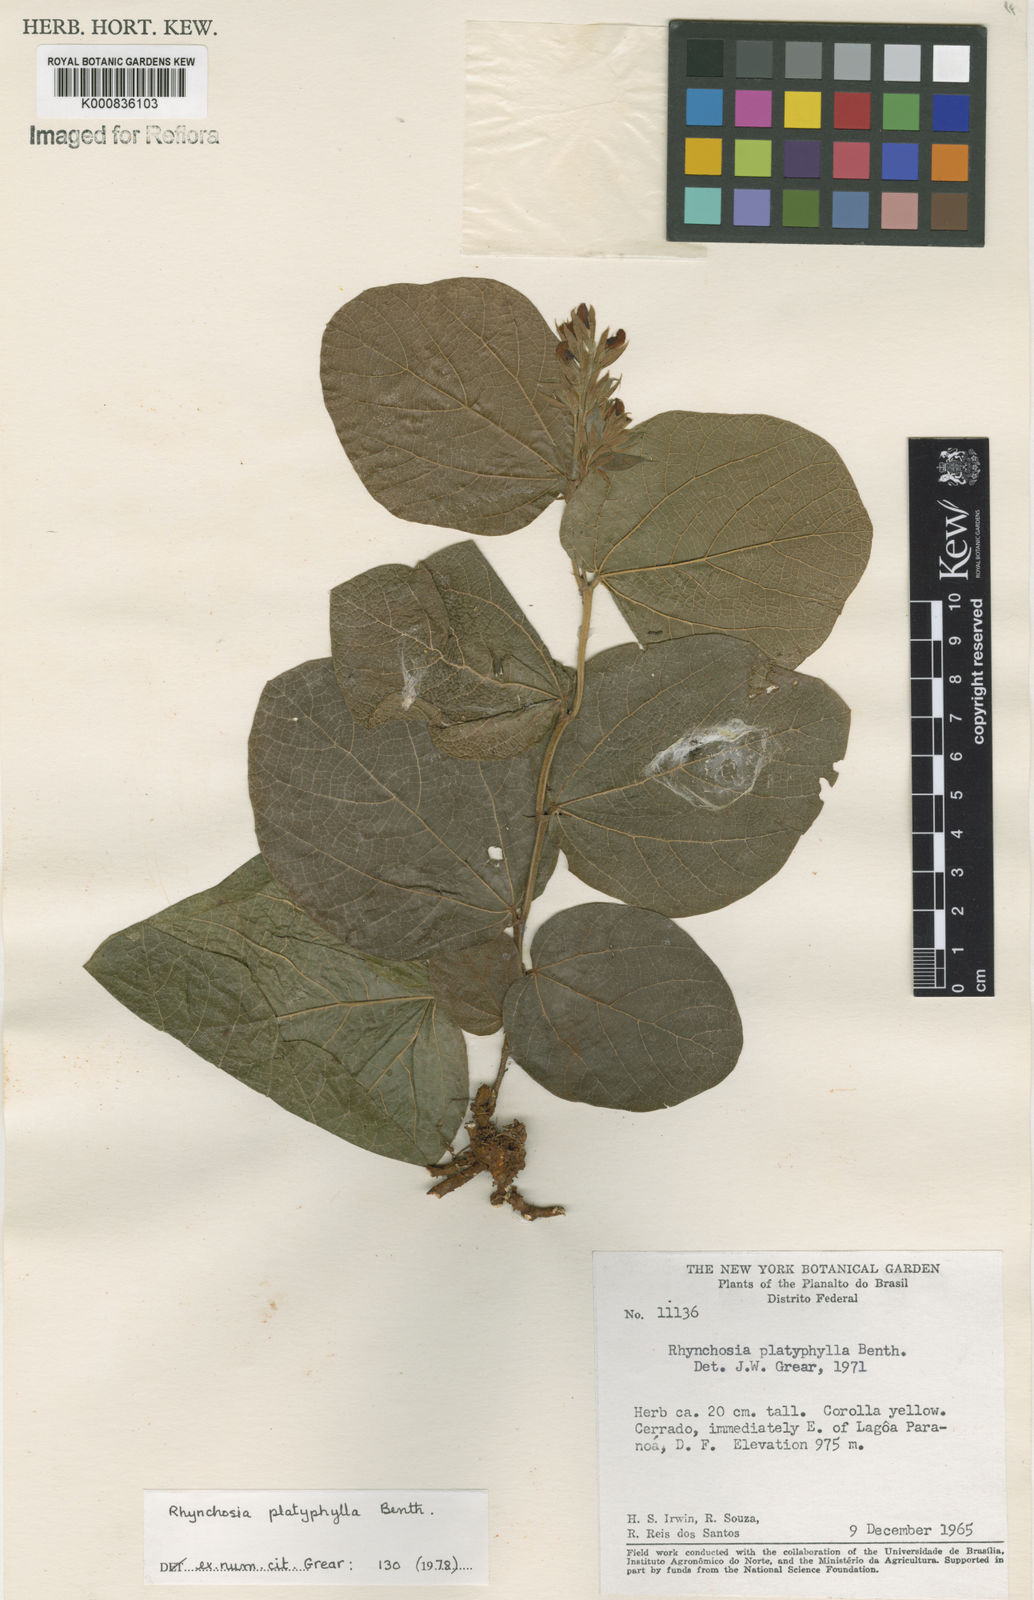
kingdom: Plantae
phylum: Tracheophyta
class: Magnoliopsida
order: Fabales
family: Fabaceae
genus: Rhynchosia
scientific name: Rhynchosia platyphylla
